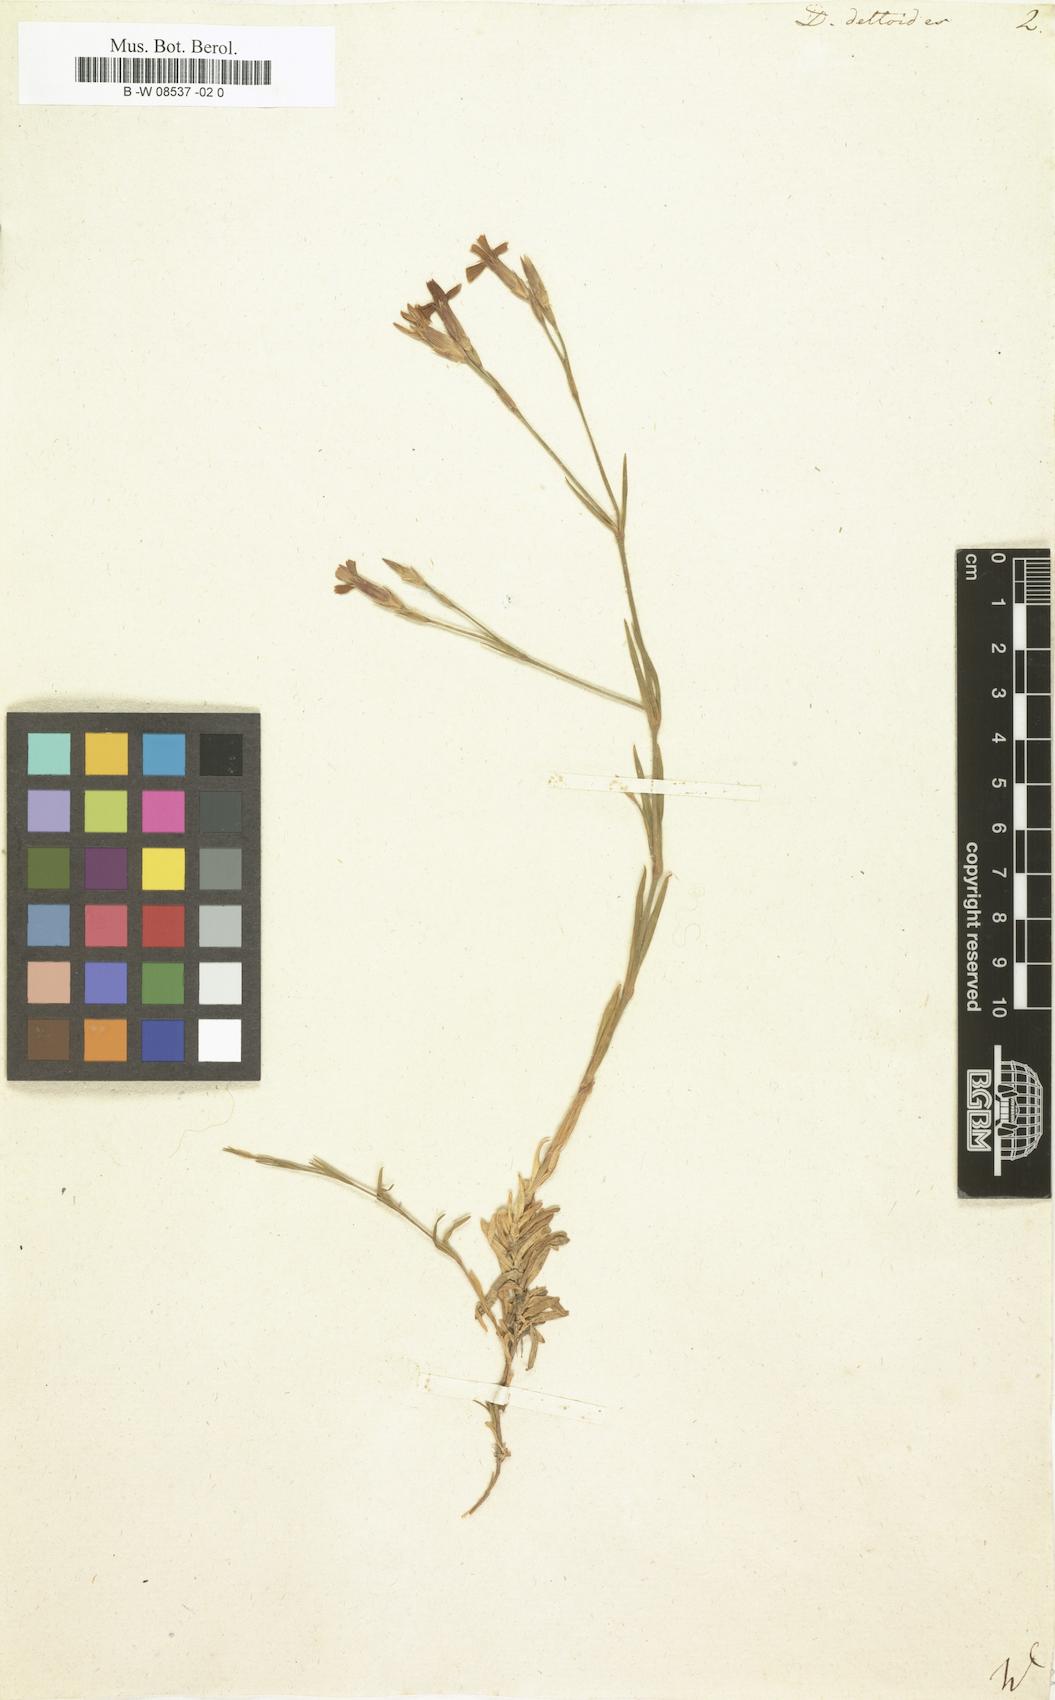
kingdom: Plantae
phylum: Tracheophyta
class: Magnoliopsida
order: Caryophyllales
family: Caryophyllaceae
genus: Dianthus
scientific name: Dianthus deltoides
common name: Maiden pink
